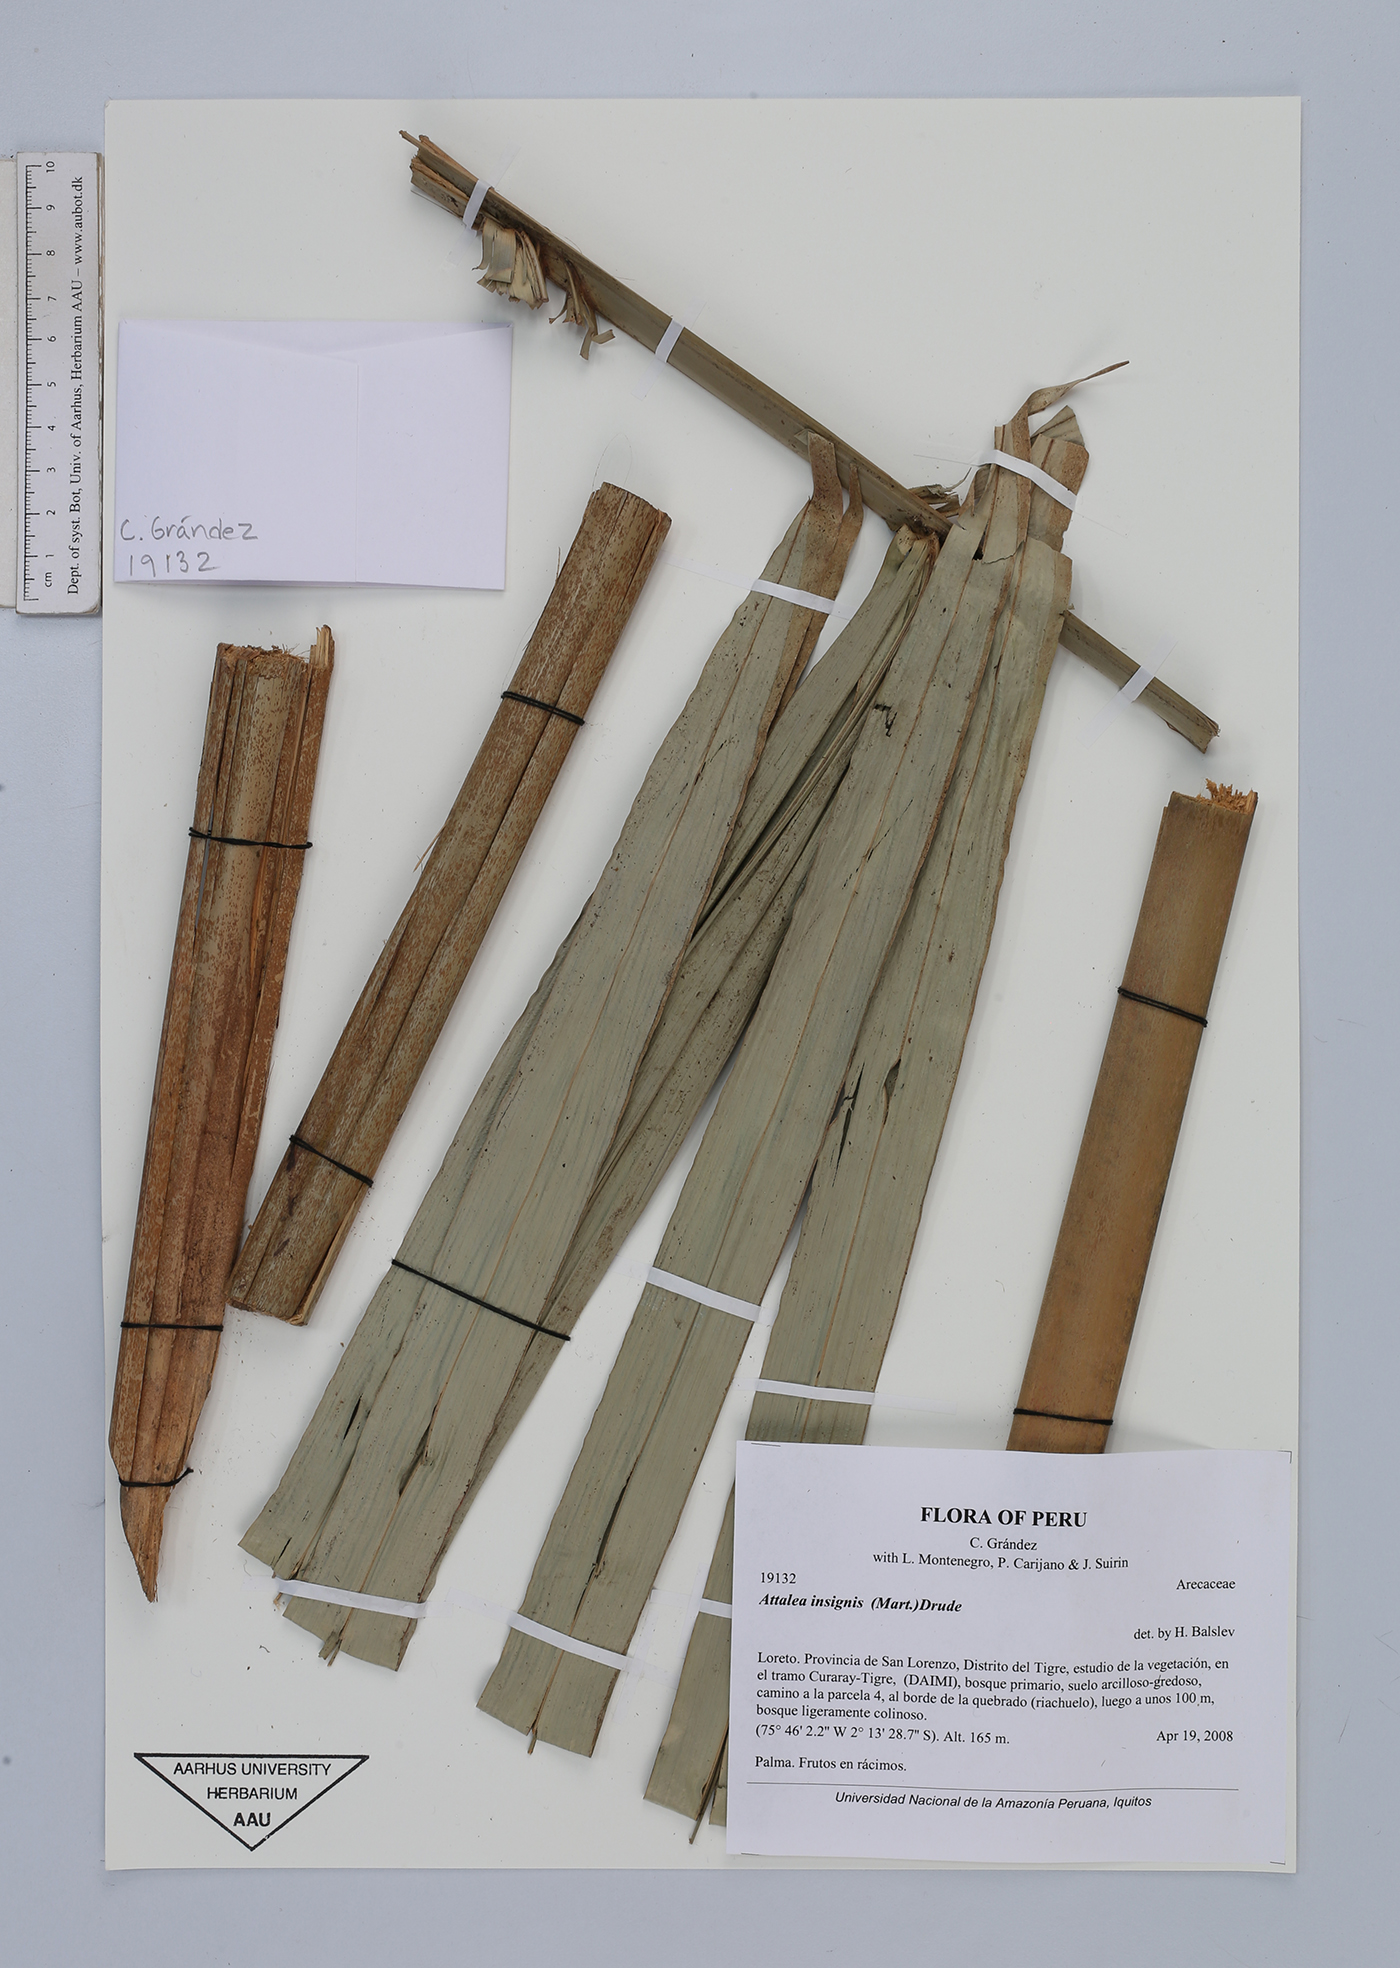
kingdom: Plantae
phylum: Tracheophyta
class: Liliopsida
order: Arecales
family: Arecaceae
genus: Attalea
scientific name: Attalea insignis
